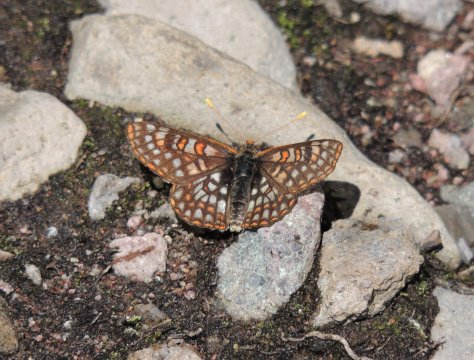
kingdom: Animalia
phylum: Arthropoda
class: Insecta
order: Lepidoptera
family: Nymphalidae
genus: Occidryas
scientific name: Occidryas anicia
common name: Anicia Checkerspot
